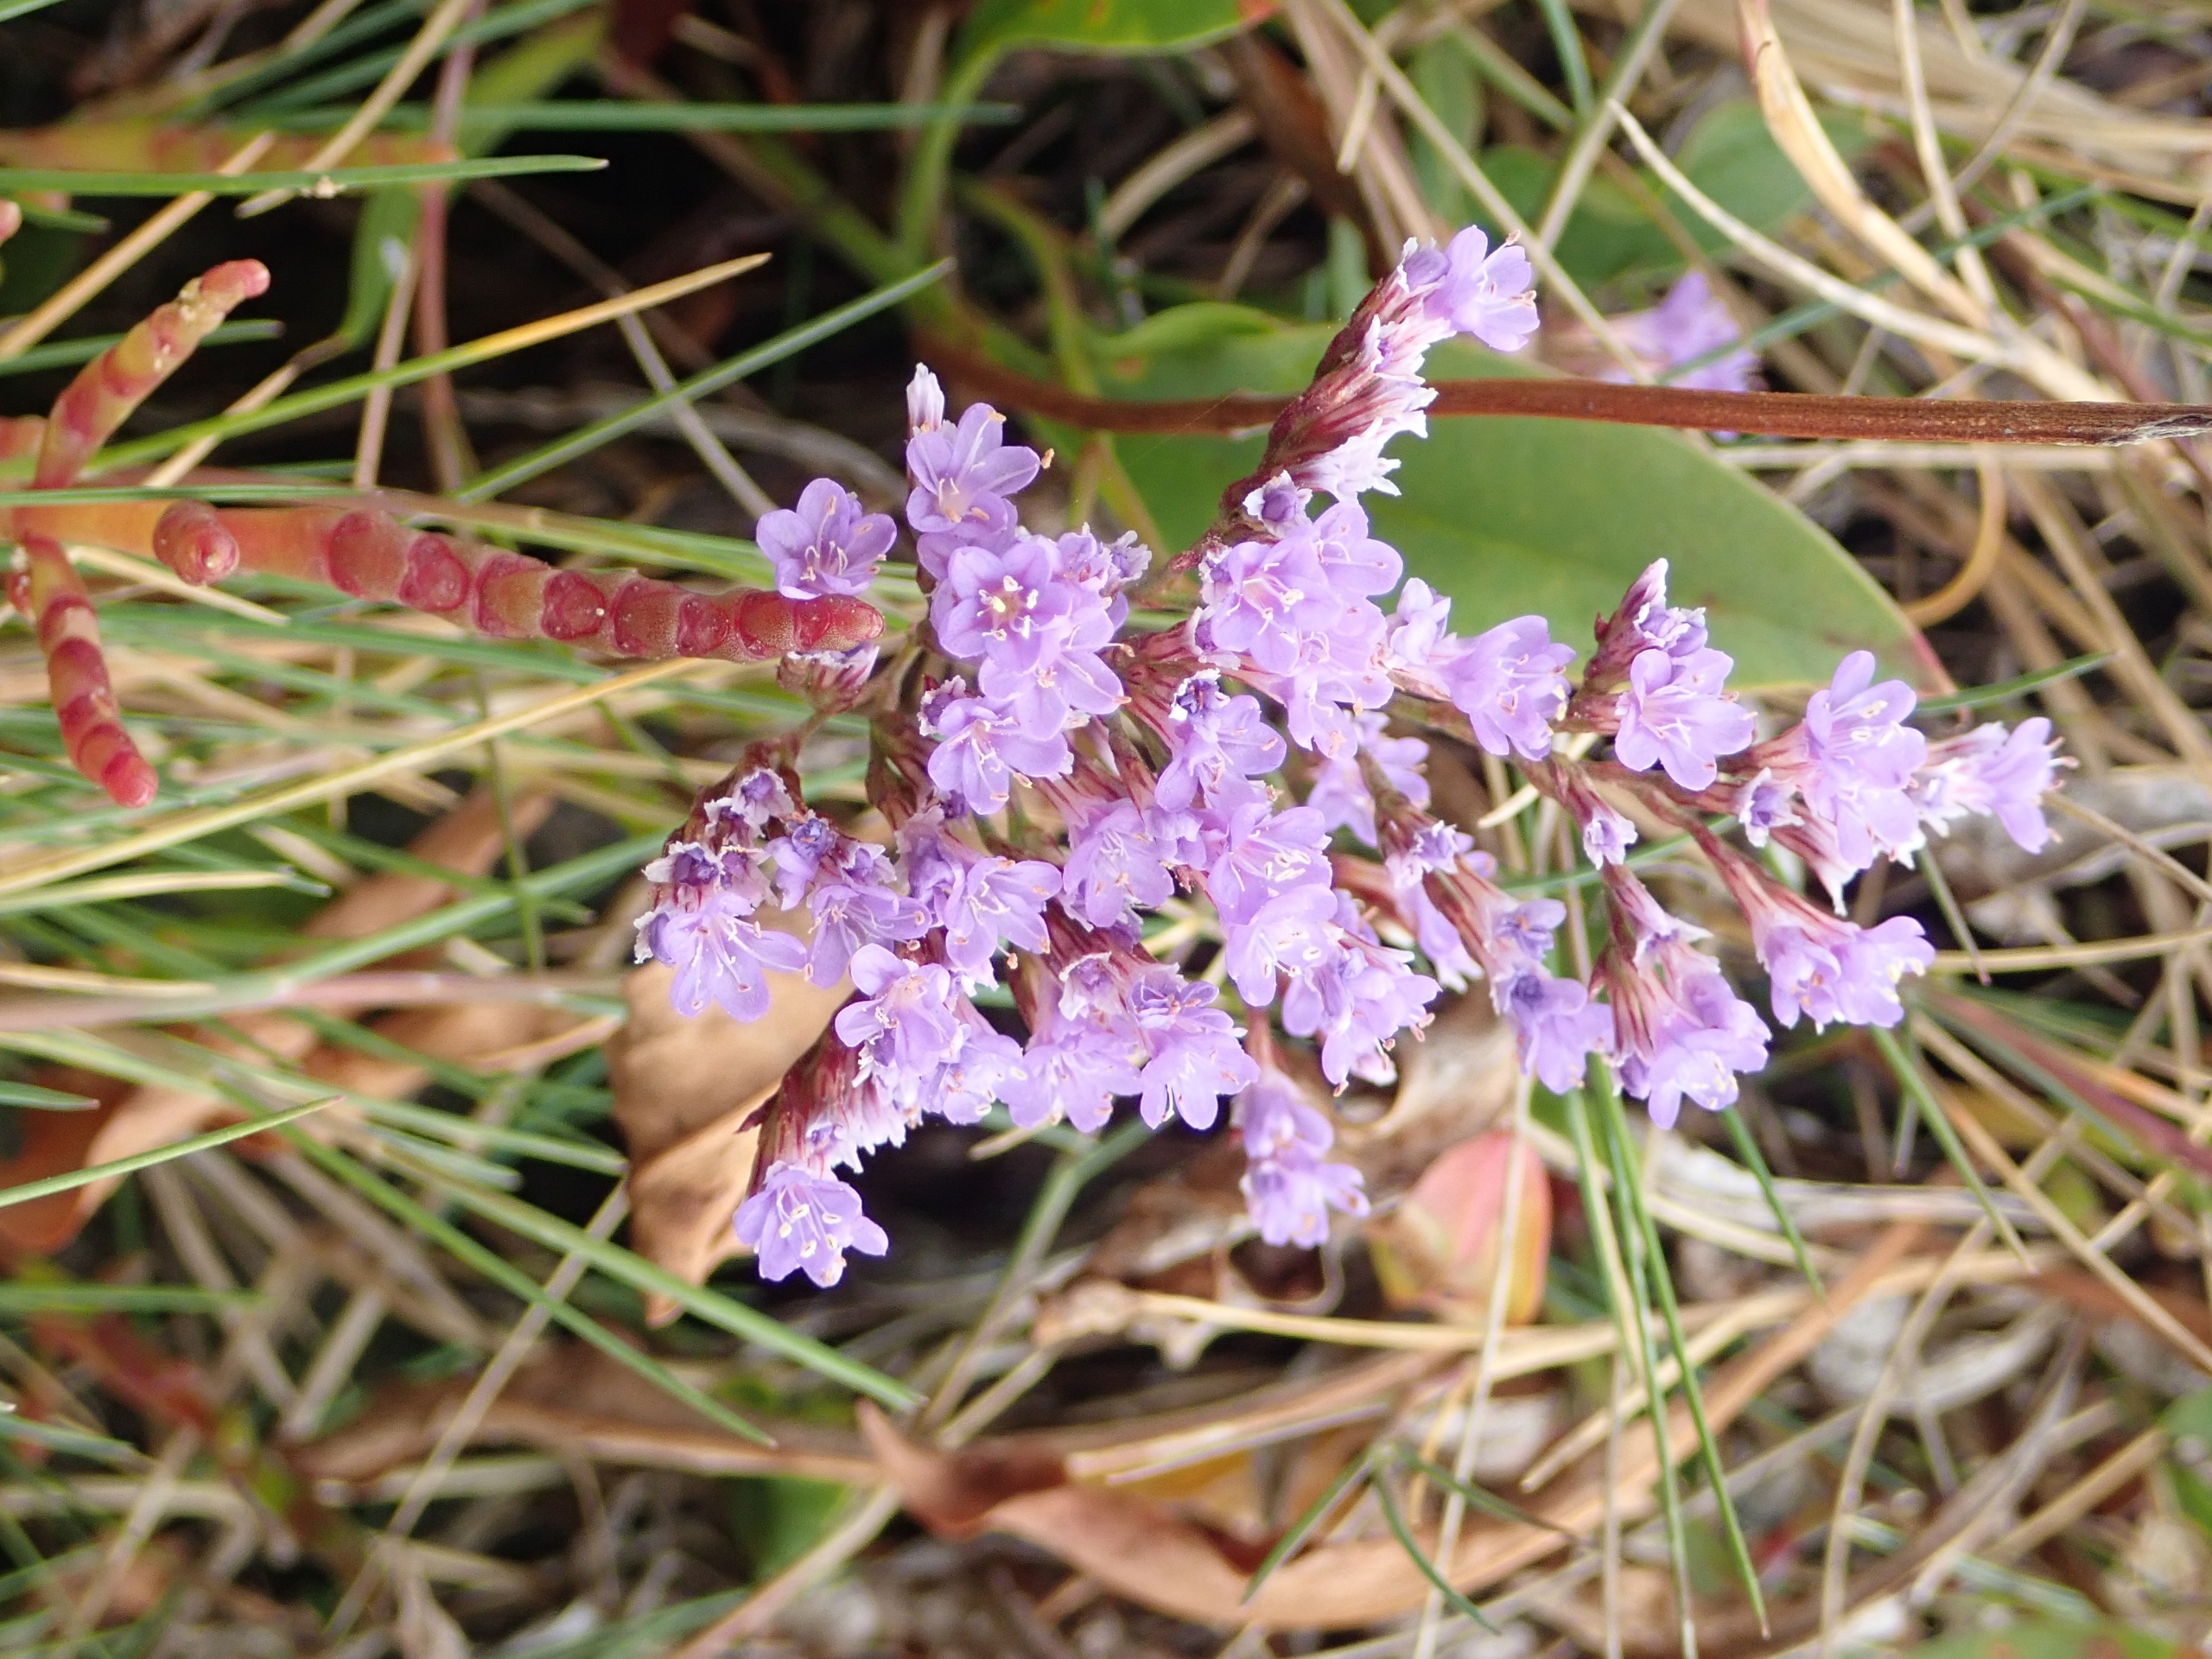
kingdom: Plantae
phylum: Tracheophyta
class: Magnoliopsida
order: Caryophyllales
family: Plumbaginaceae
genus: Limonium
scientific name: Limonium vulgare
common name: Tætblomstret hindebæger
